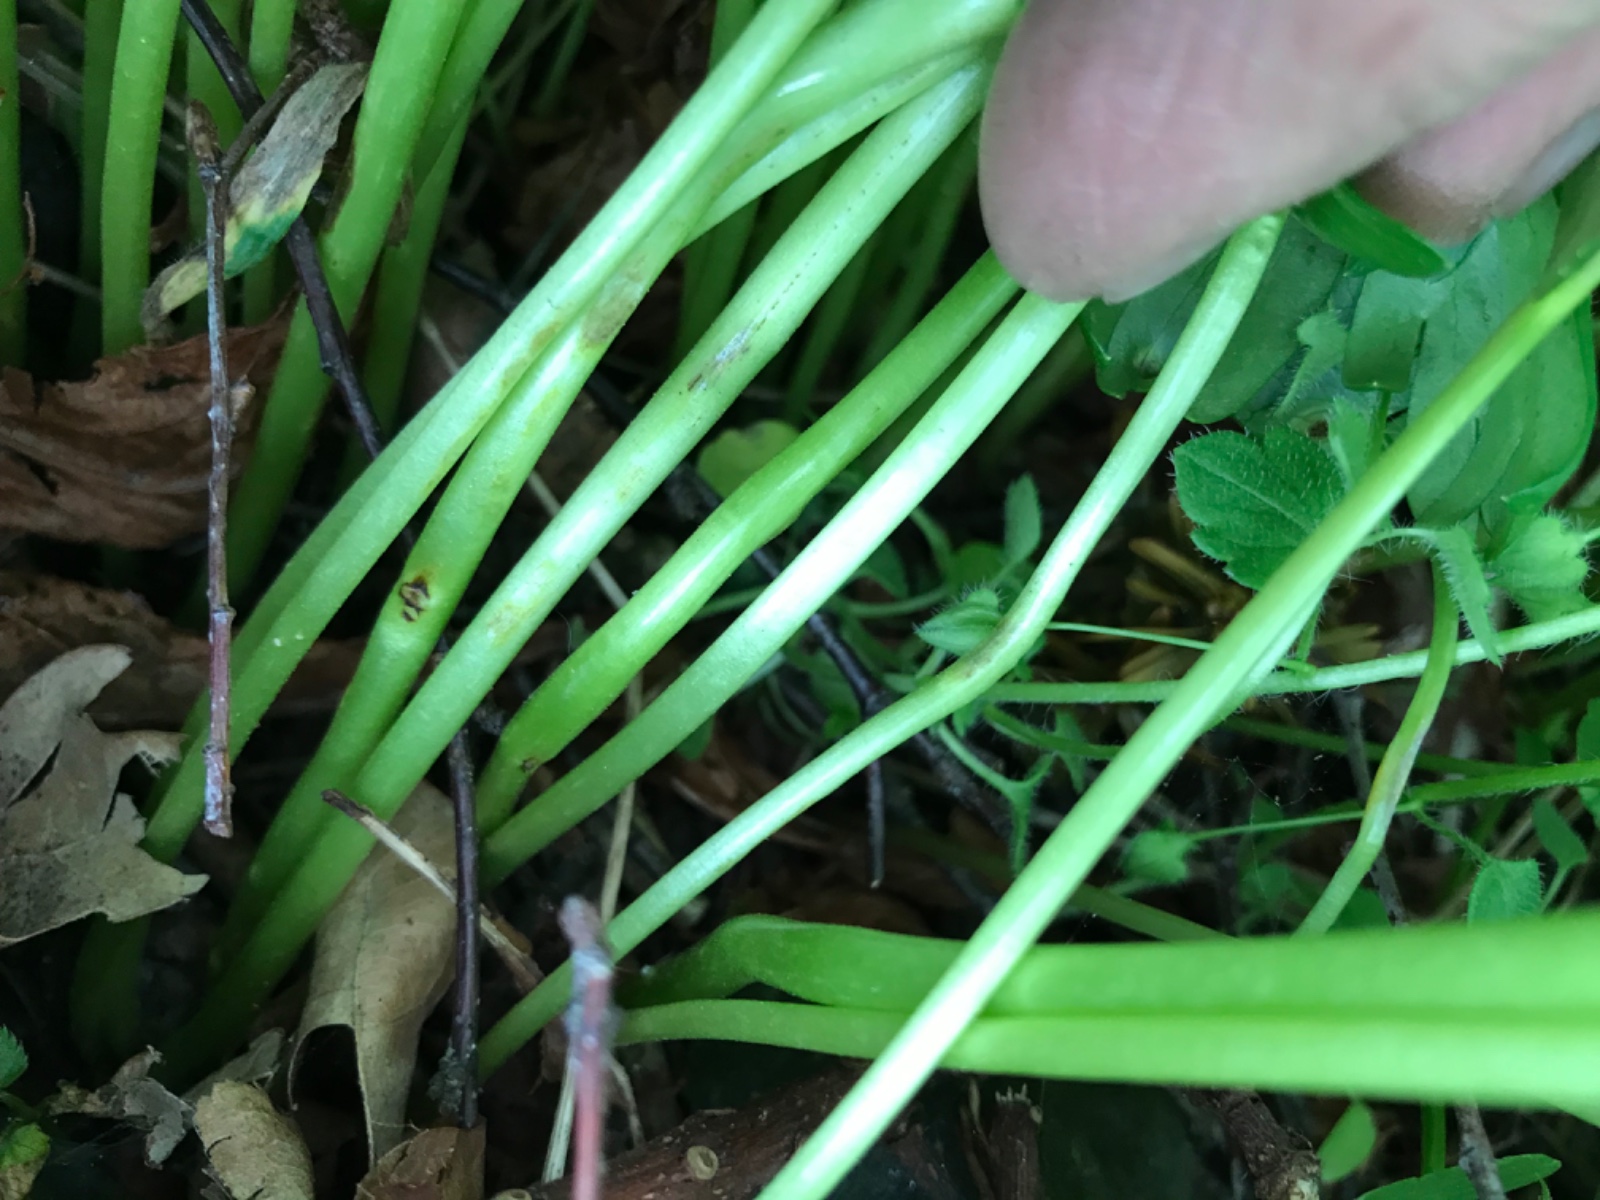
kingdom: Fungi
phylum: Basidiomycota
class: Ustilaginomycetes
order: Urocystidales
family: Urocystidaceae
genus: Urocystis
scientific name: Urocystis eranthidis
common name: erantis-brand
